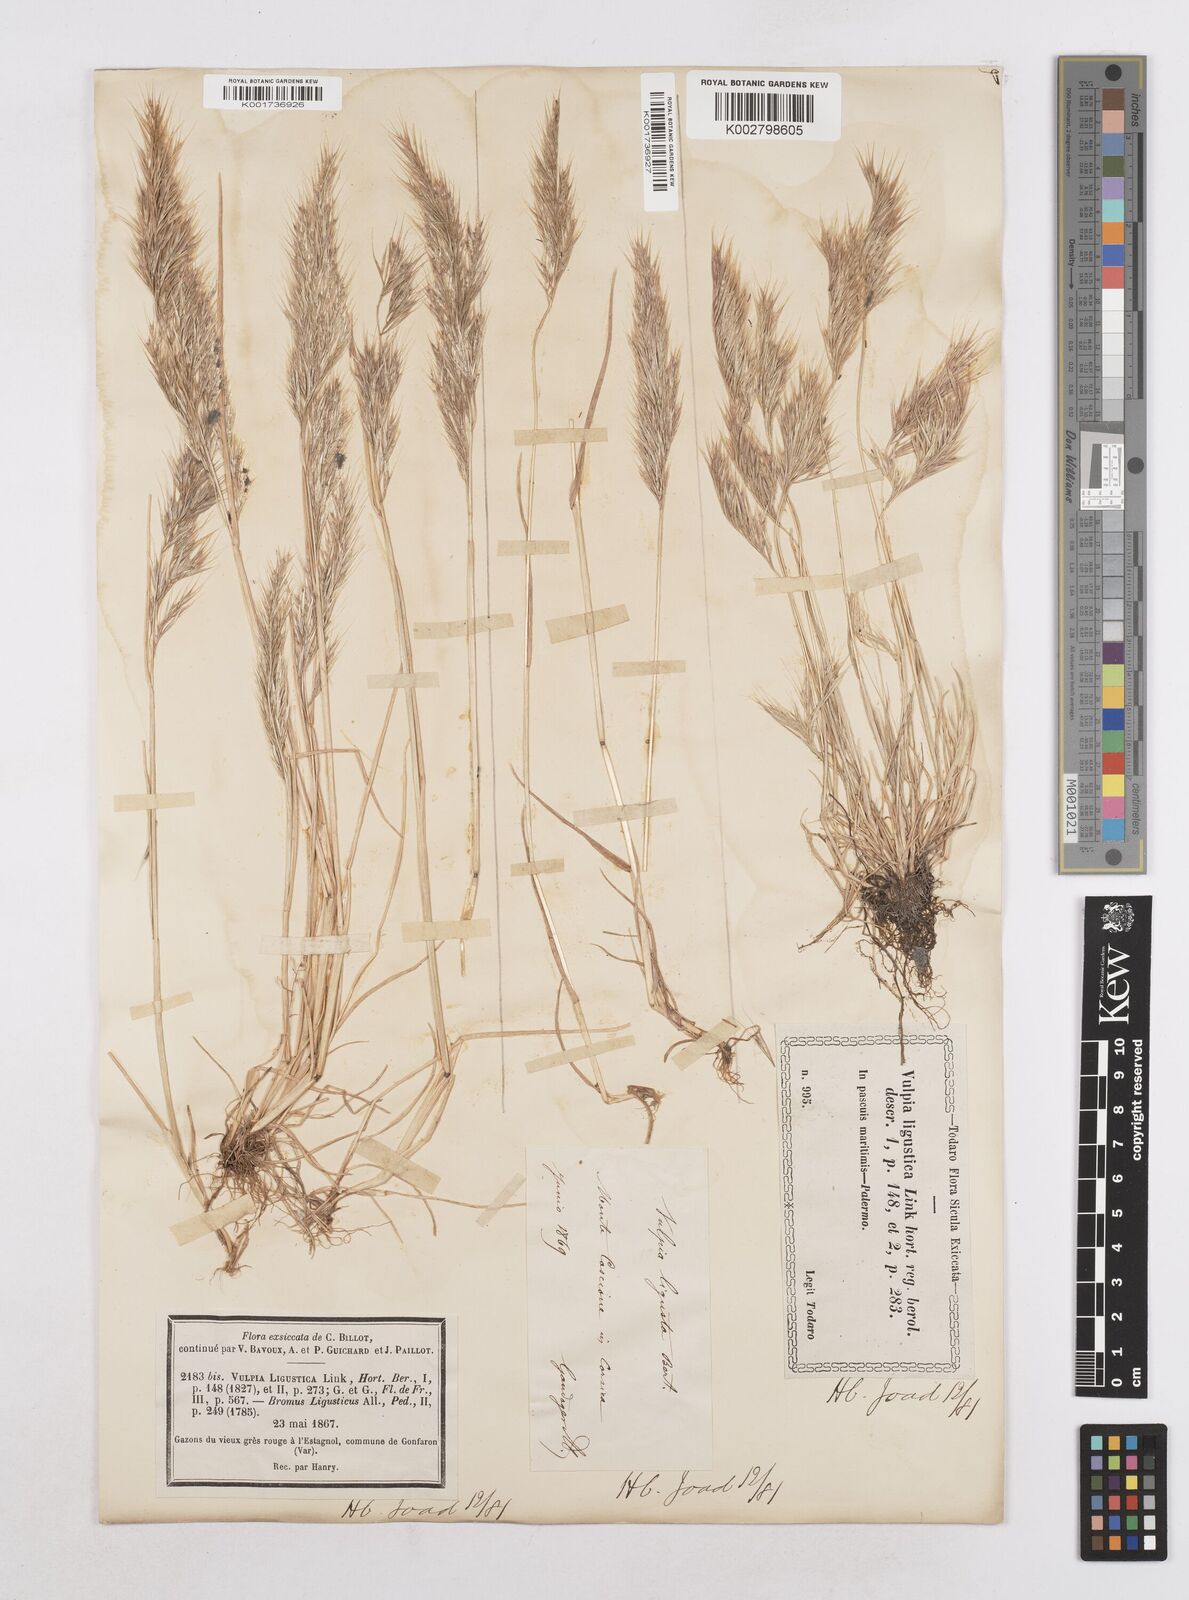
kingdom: Plantae
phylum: Tracheophyta
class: Liliopsida
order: Poales
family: Poaceae
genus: Festuca
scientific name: Festuca ligustica
